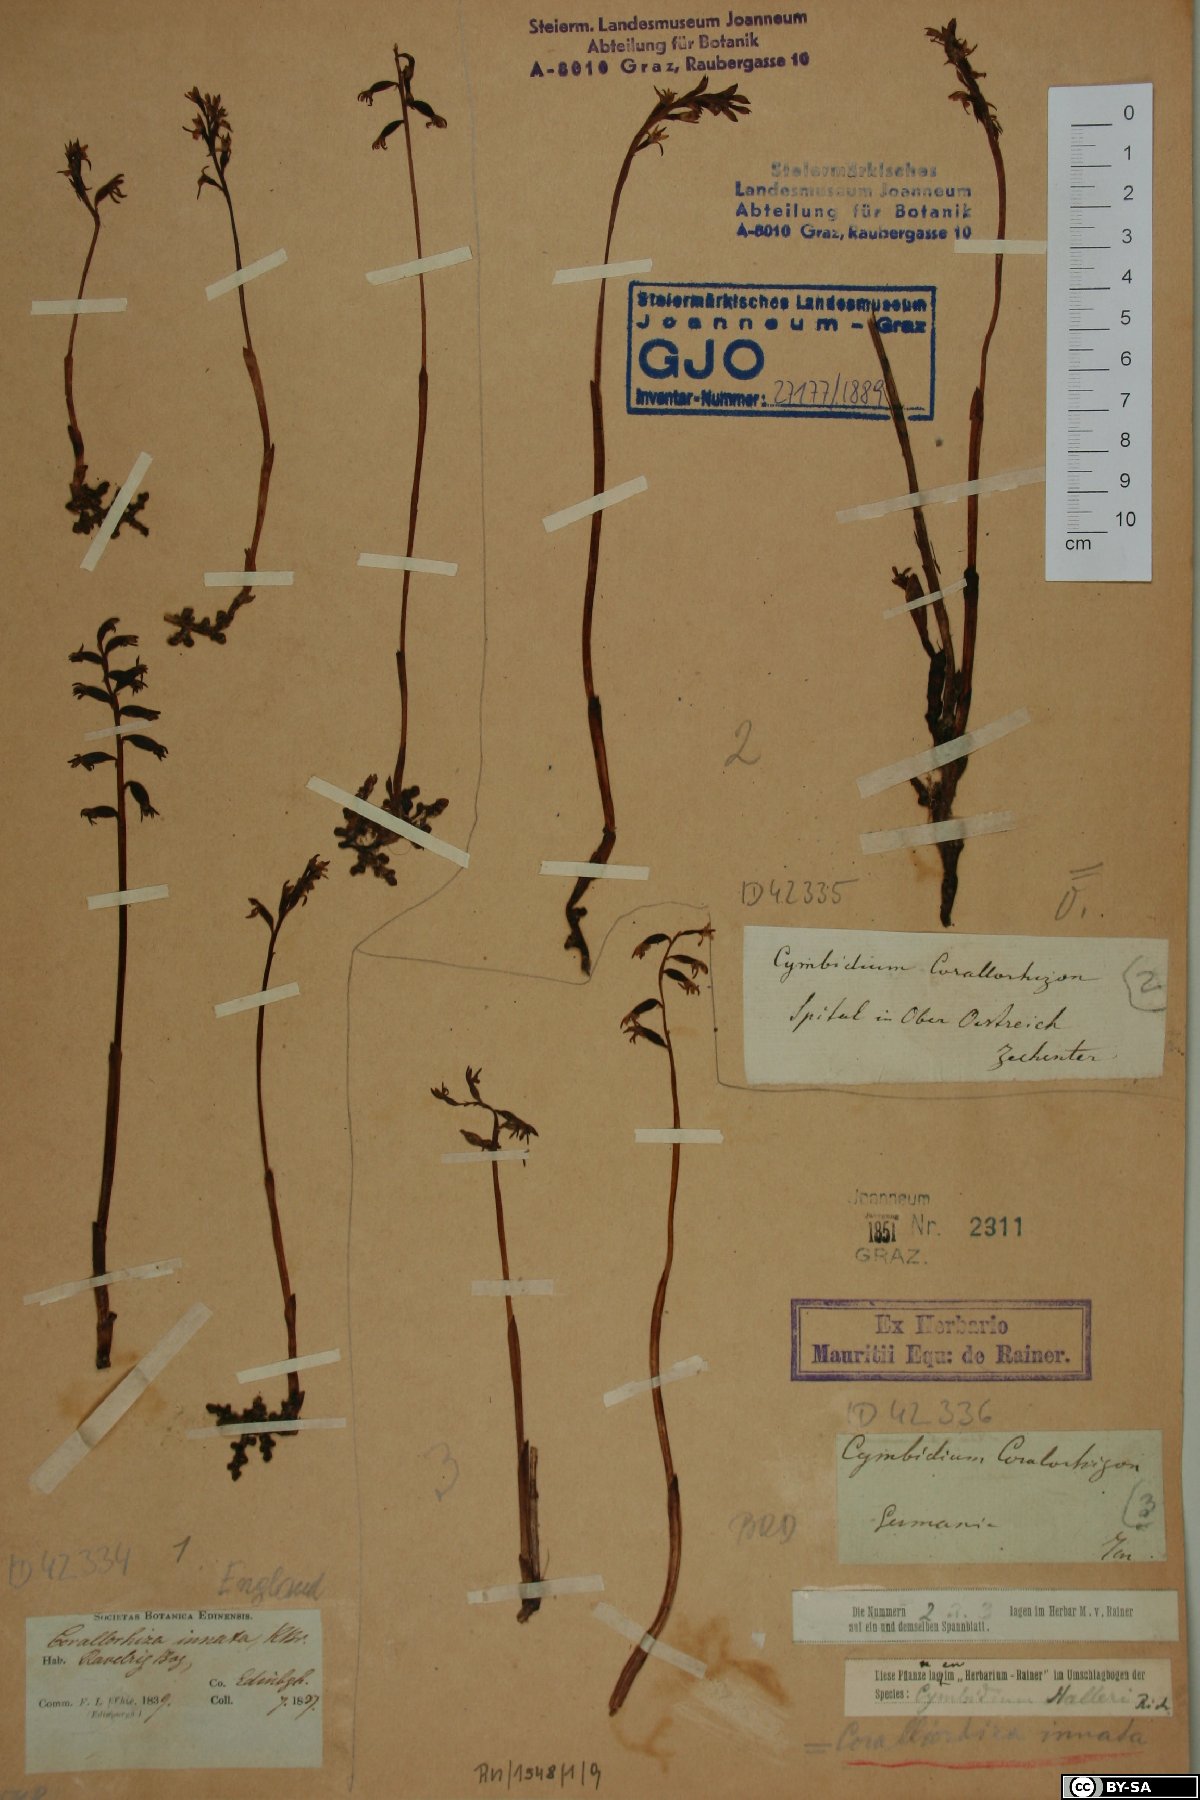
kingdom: Plantae
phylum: Tracheophyta
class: Liliopsida
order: Asparagales
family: Orchidaceae
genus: Corallorhiza
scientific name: Corallorhiza trifida
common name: Yellow coralroot
